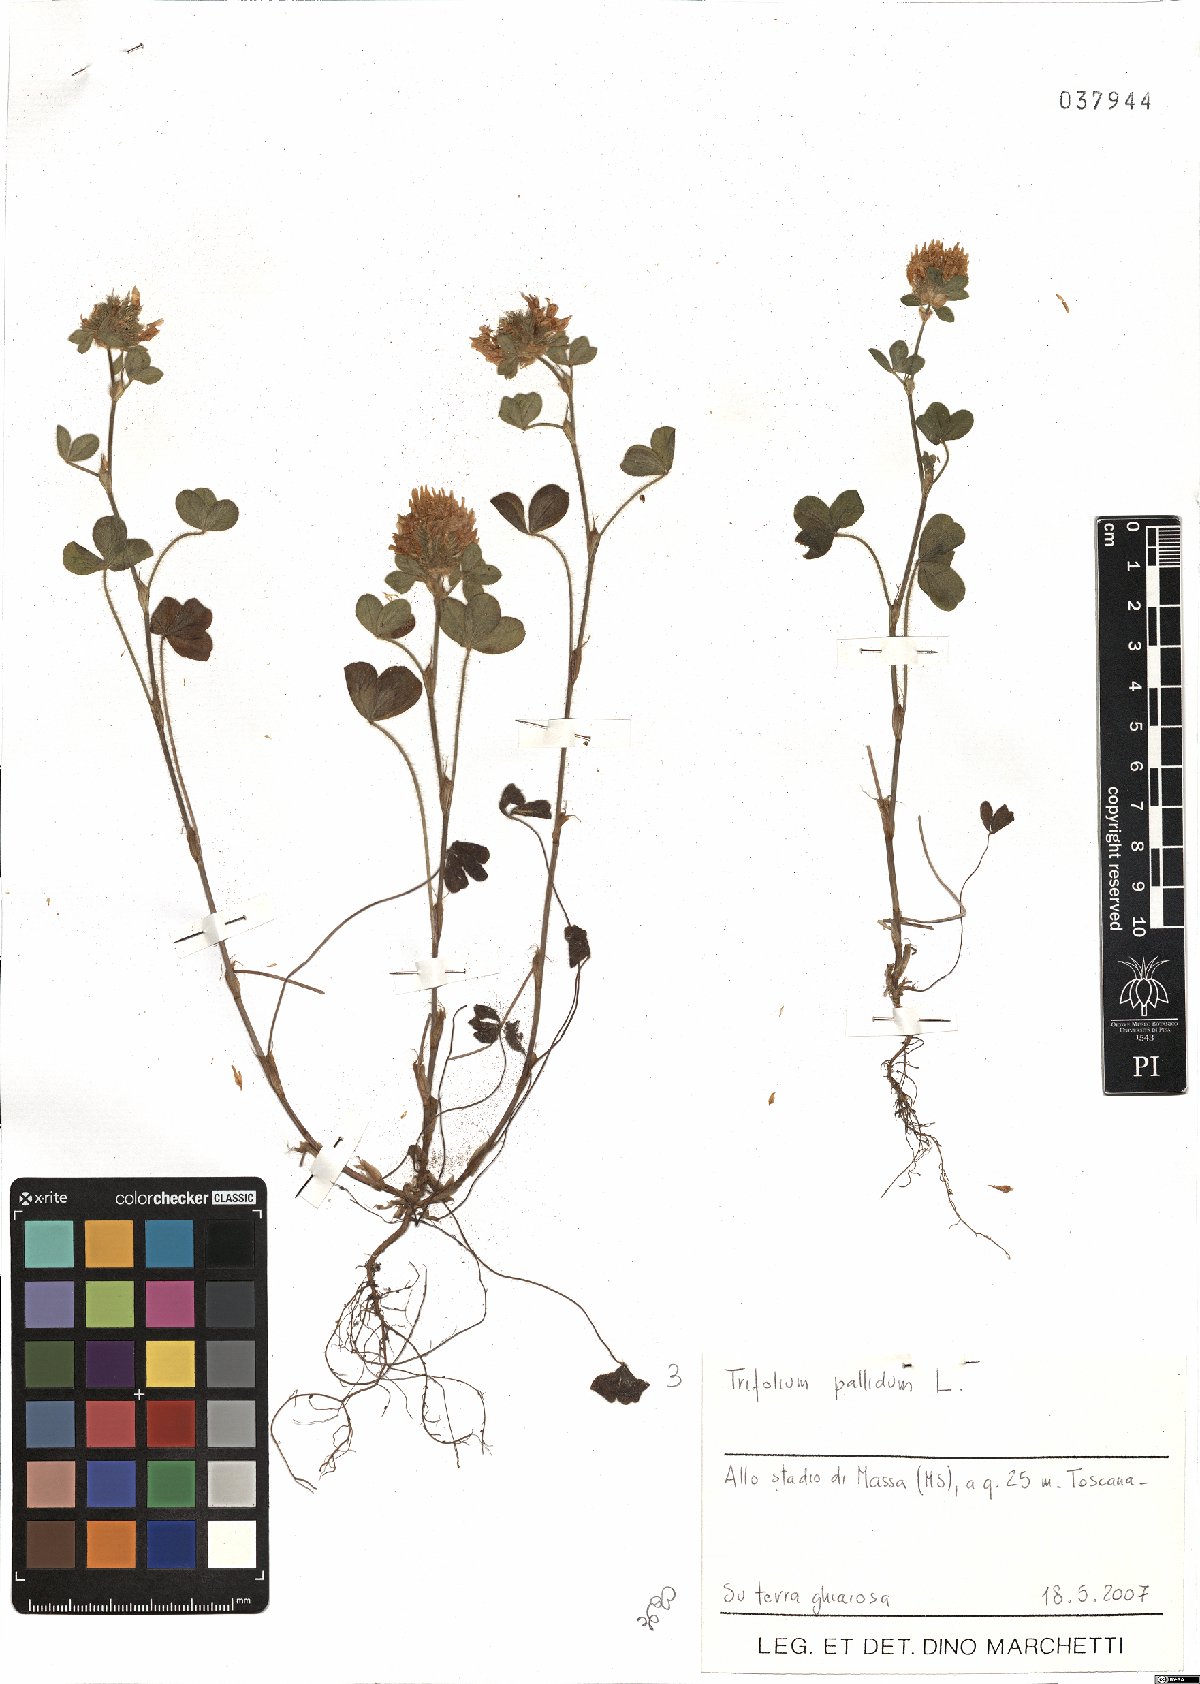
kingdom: Plantae
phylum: Tracheophyta
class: Magnoliopsida
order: Fabales
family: Fabaceae
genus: Trifolium
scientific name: Trifolium pallidum
